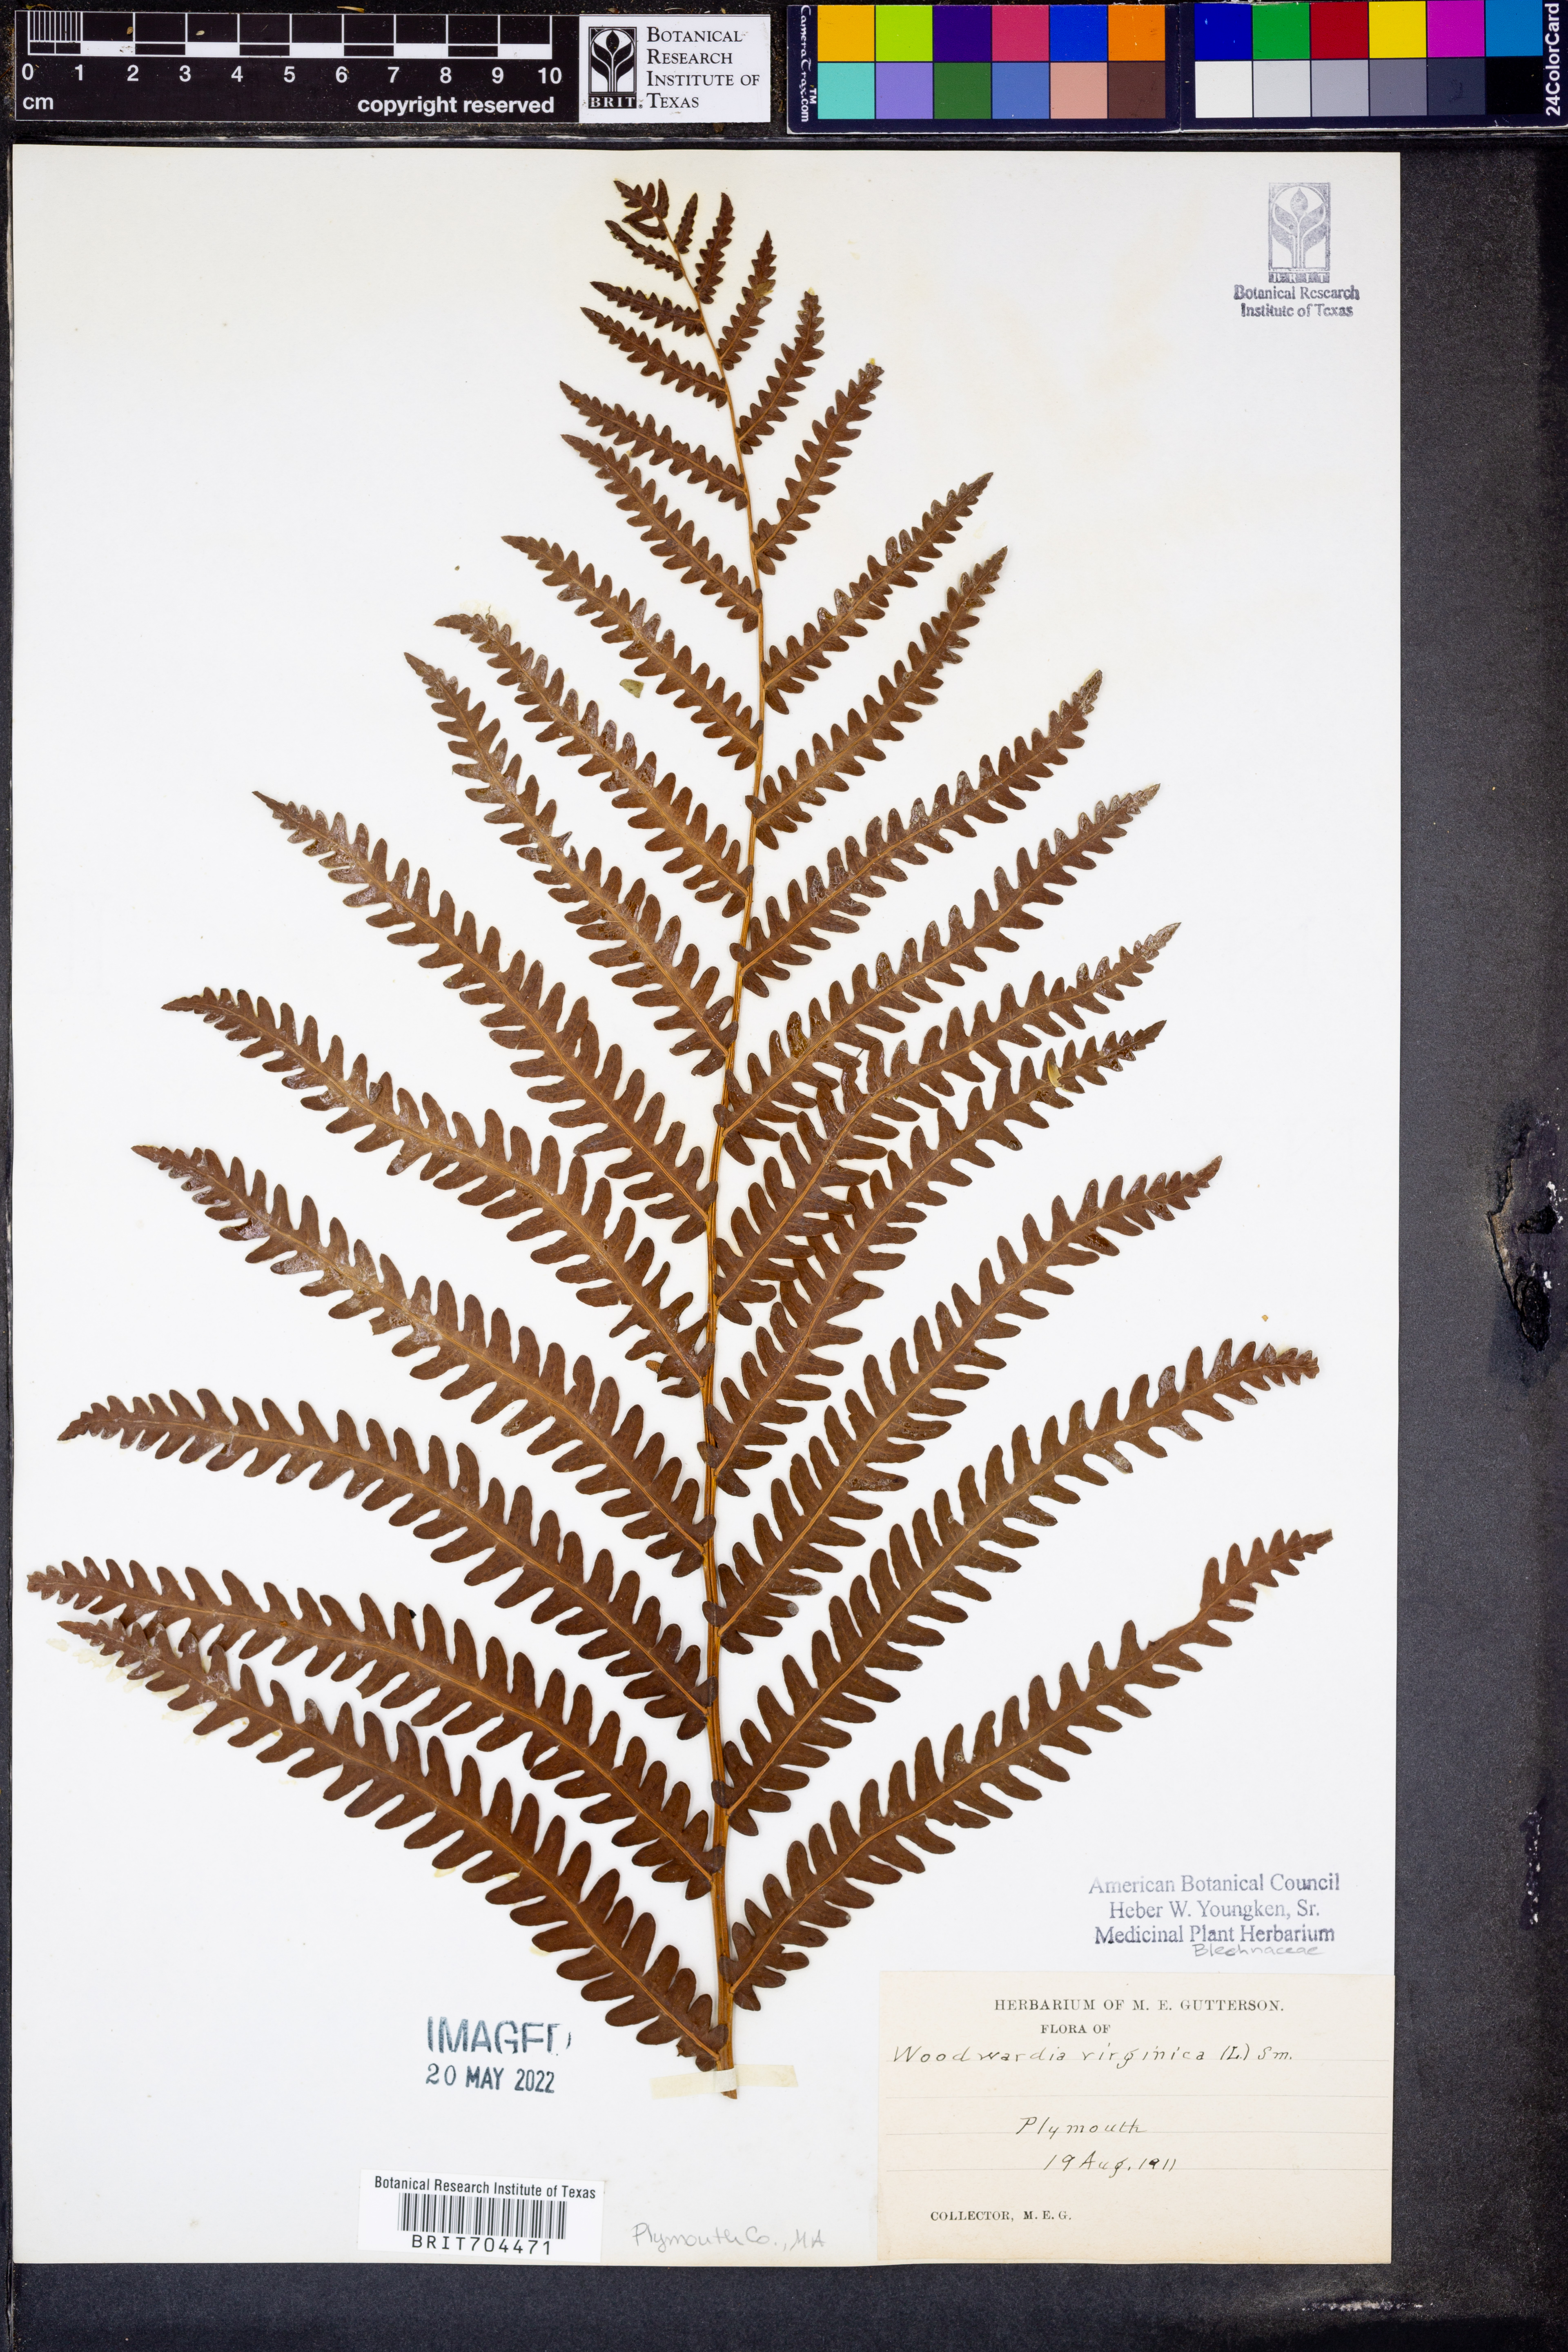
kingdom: Plantae
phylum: Tracheophyta
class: Polypodiopsida
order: Polypodiales
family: Blechnaceae
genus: Anchistea
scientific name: Anchistea virginica
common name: Virginia chain fern
